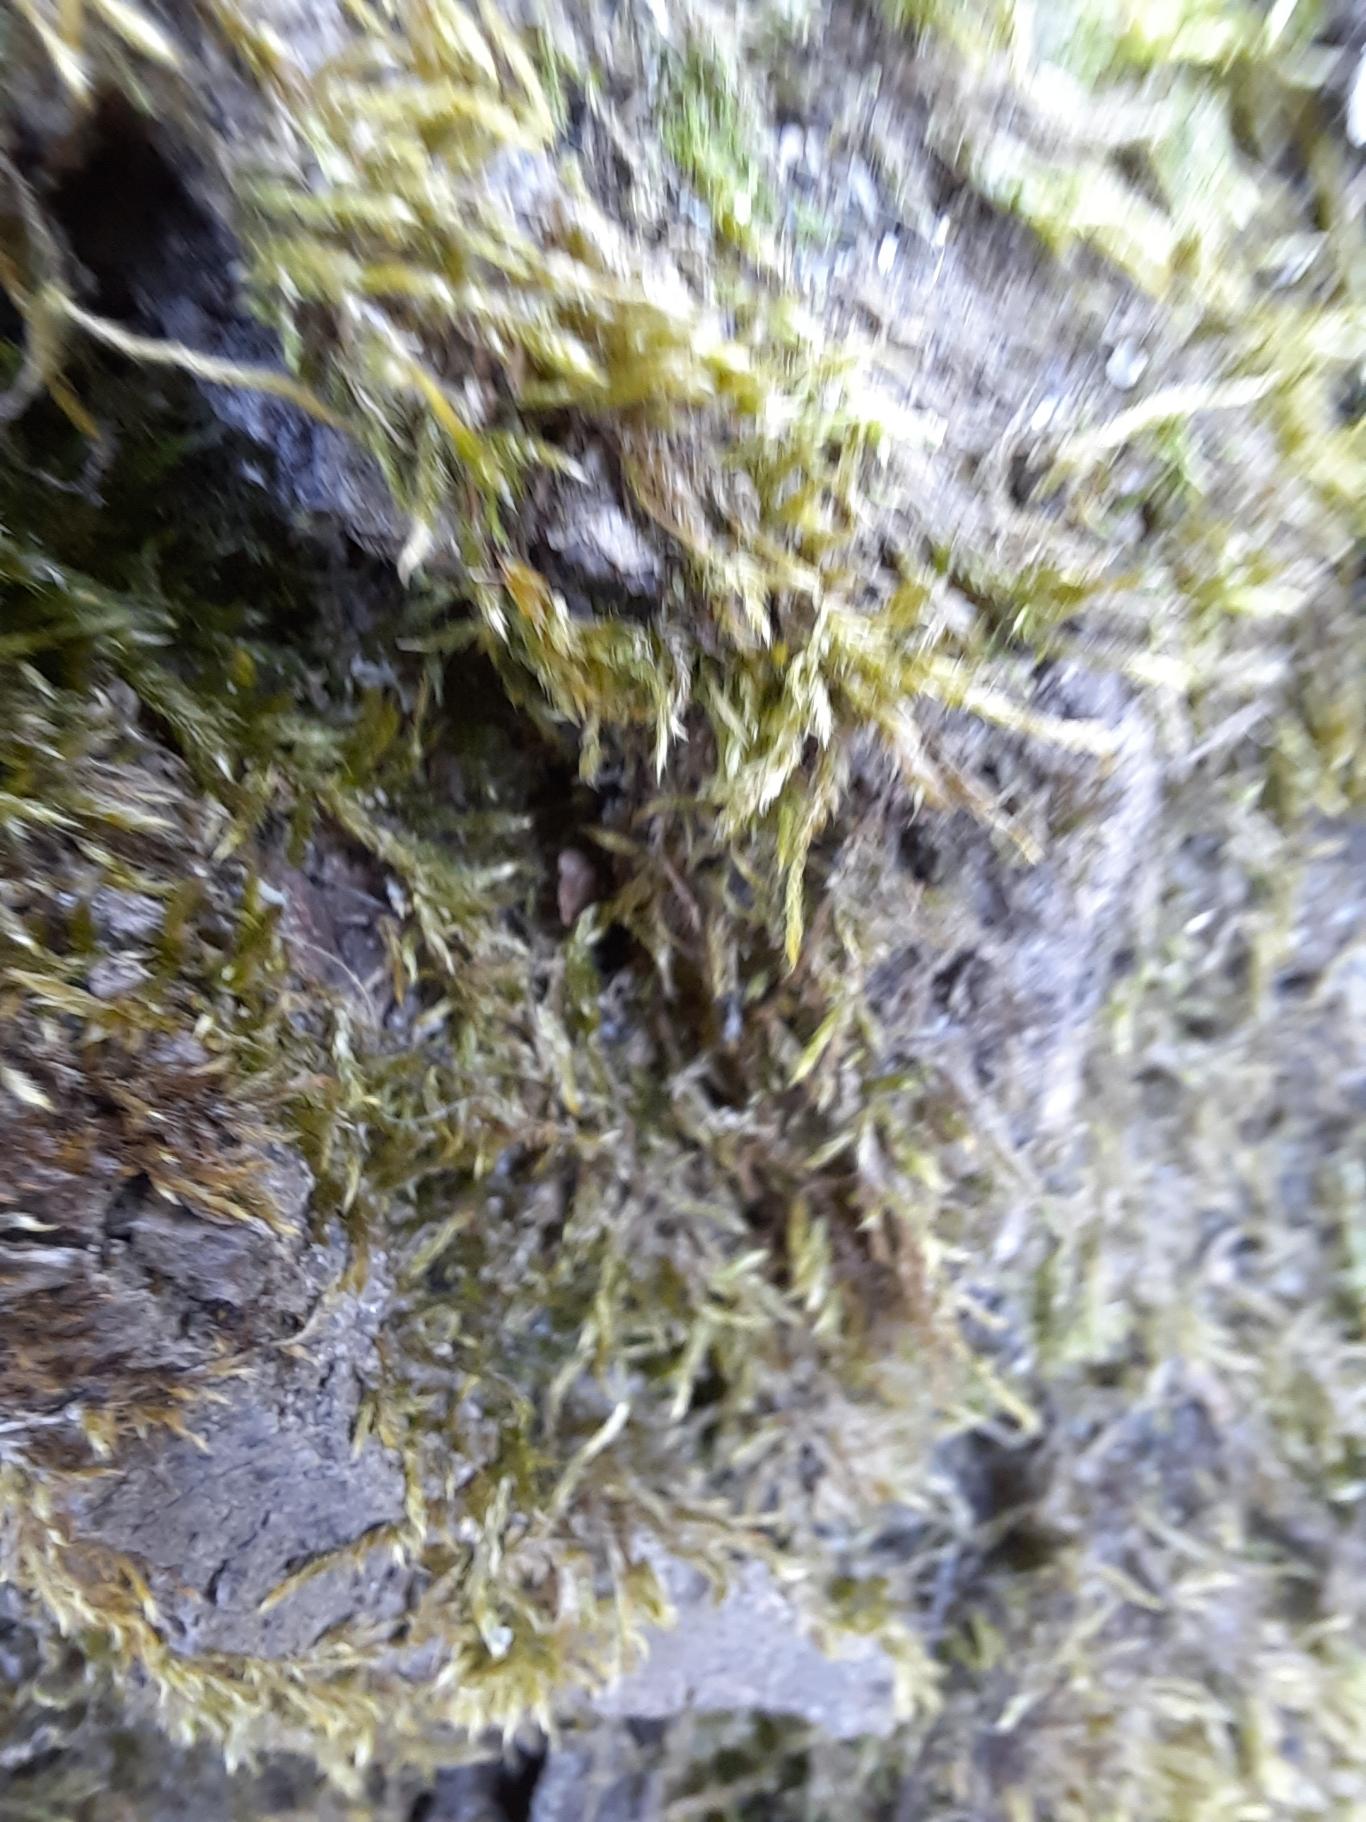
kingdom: Plantae
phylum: Bryophyta
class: Bryopsida
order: Hypnales
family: Hypnaceae
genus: Hypnum
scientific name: Hypnum
